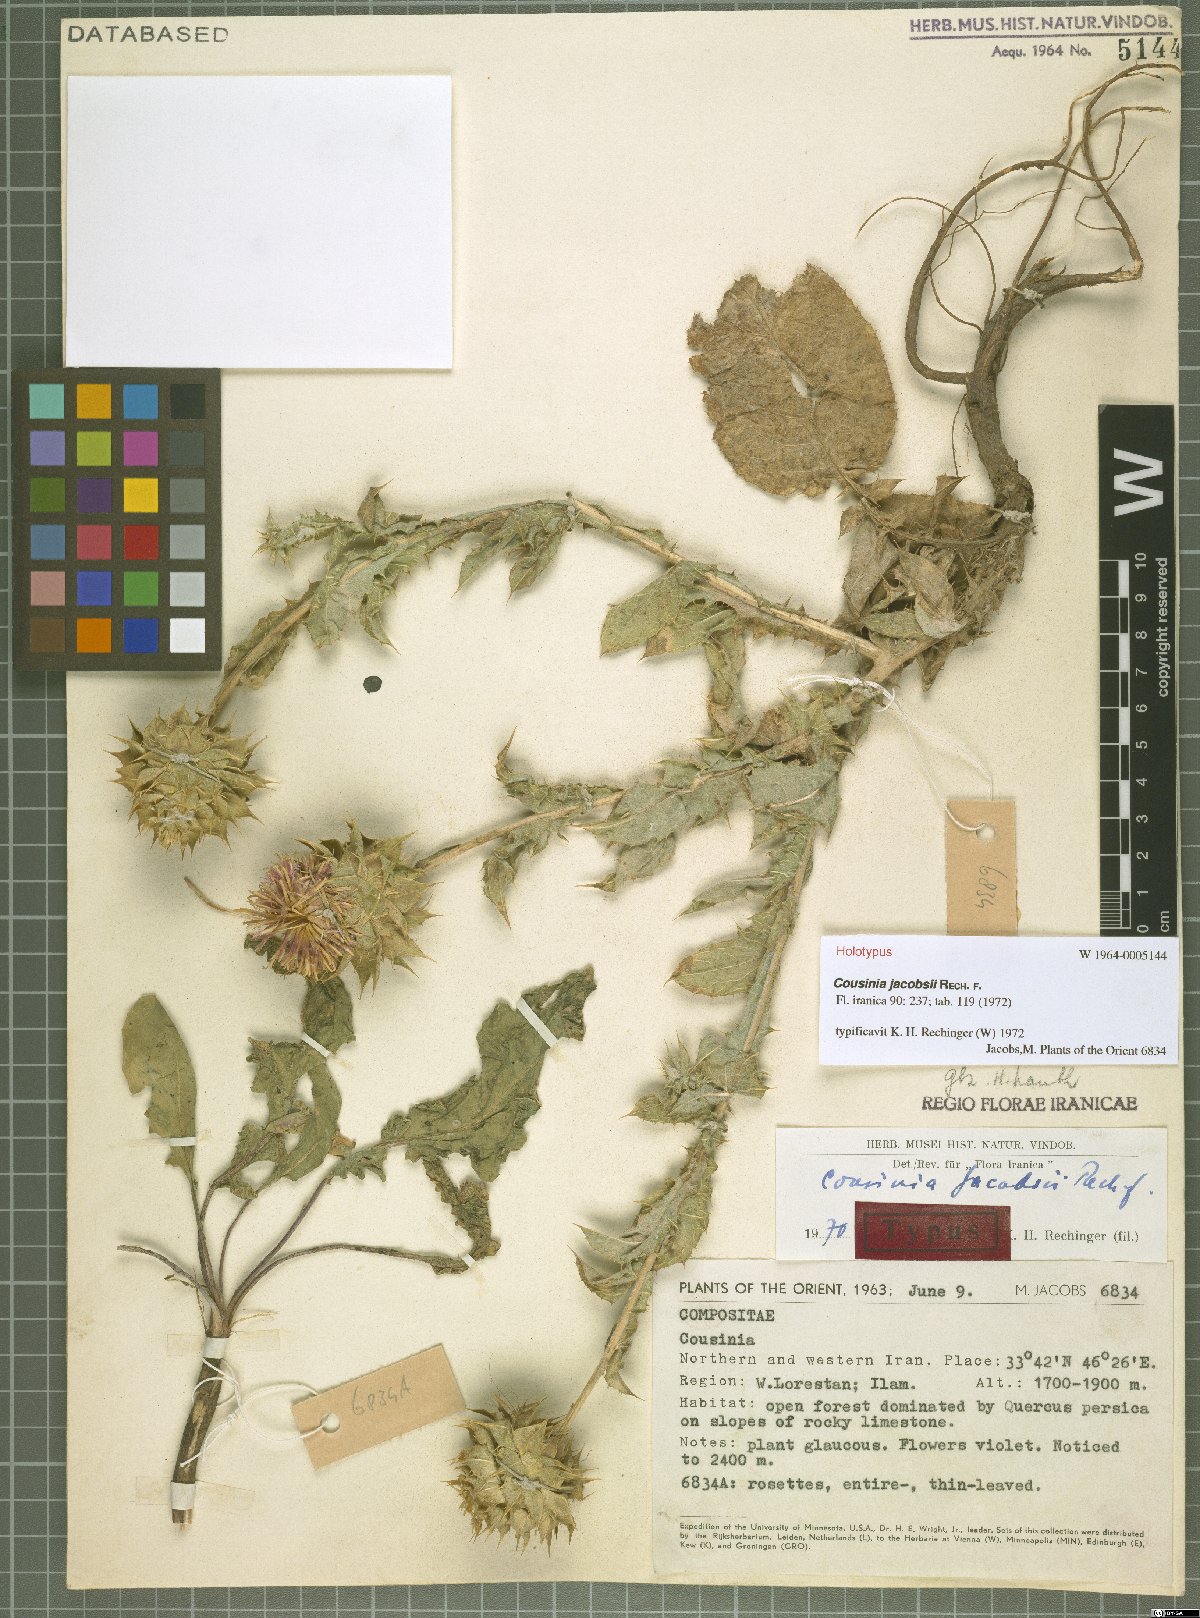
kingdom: Plantae
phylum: Tracheophyta
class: Magnoliopsida
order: Asterales
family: Asteraceae
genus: Cousinia
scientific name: Cousinia jacobsii
